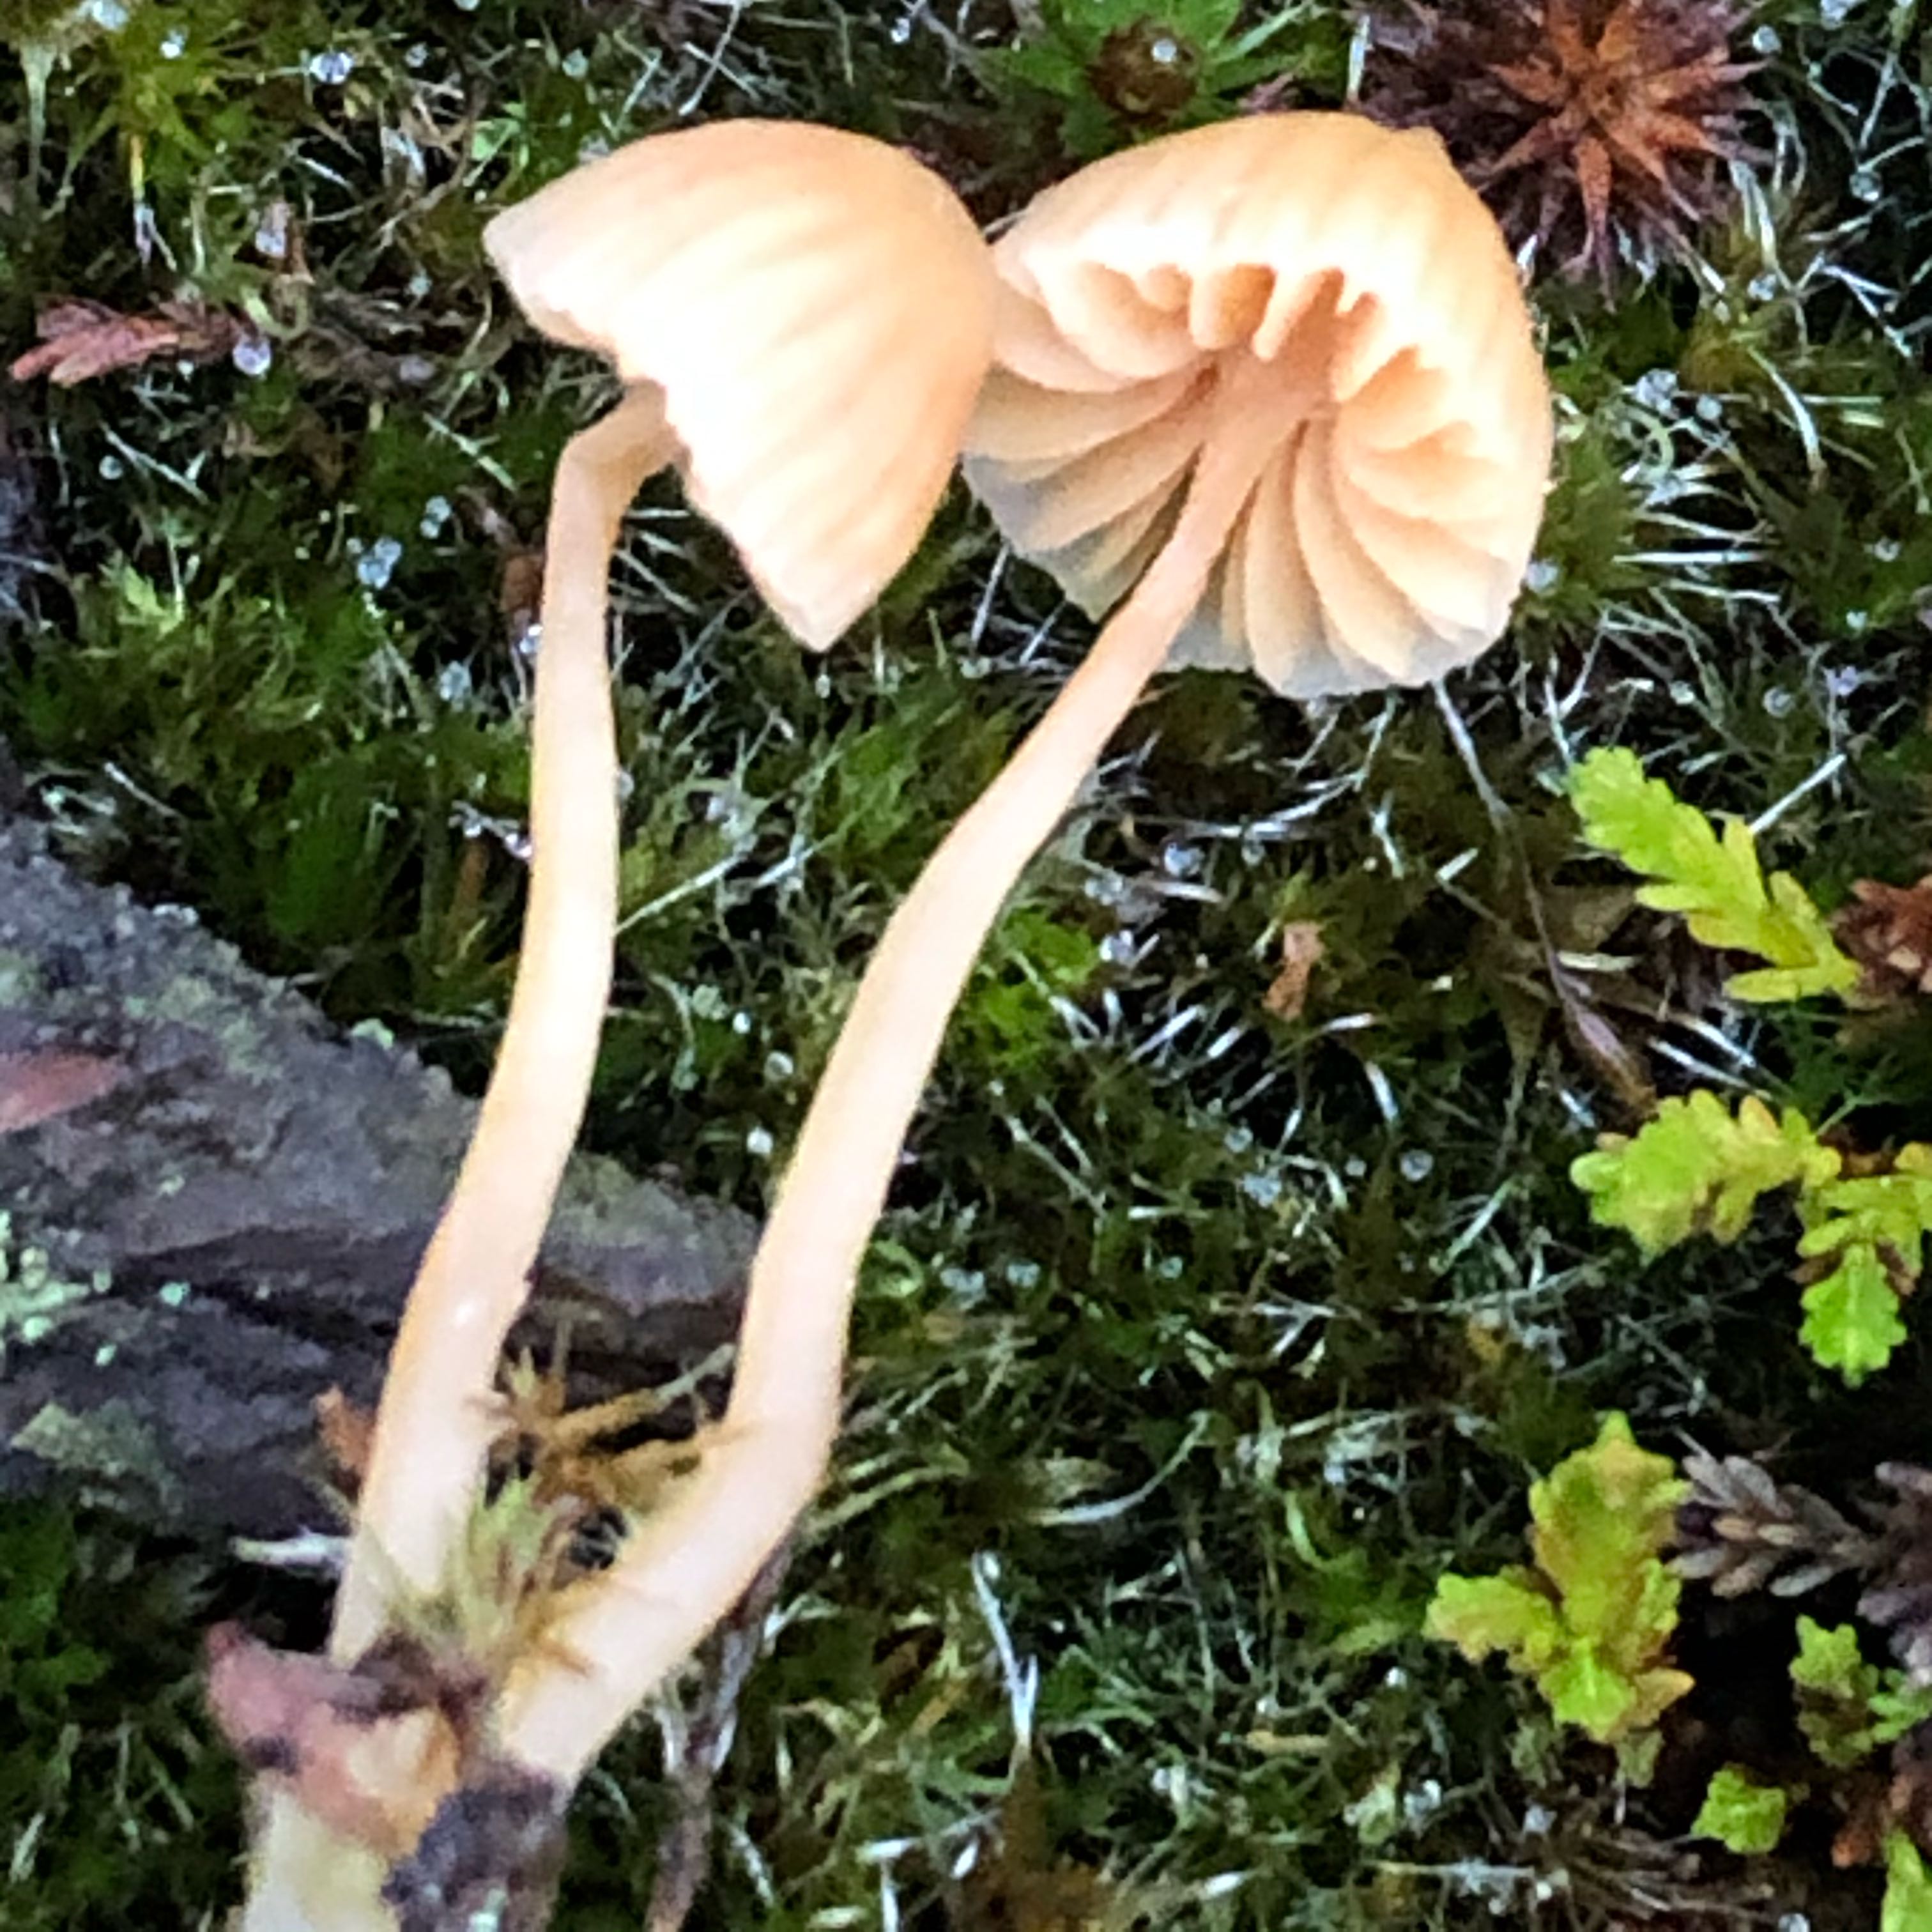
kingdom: Fungi
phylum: Basidiomycota
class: Agaricomycetes
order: Agaricales
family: Hymenogastraceae
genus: Galerina
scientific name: Galerina
